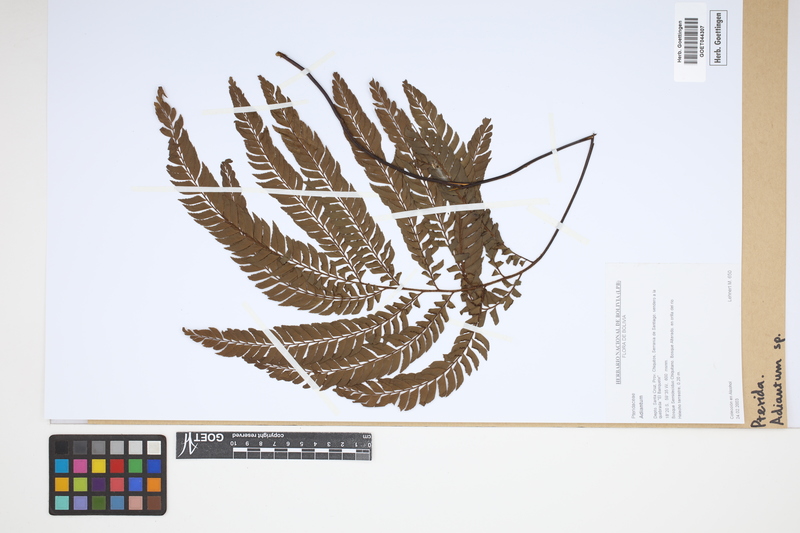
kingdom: Plantae
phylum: Tracheophyta
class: Polypodiopsida
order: Polypodiales
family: Pteridaceae
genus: Adiantum
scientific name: Adiantum
